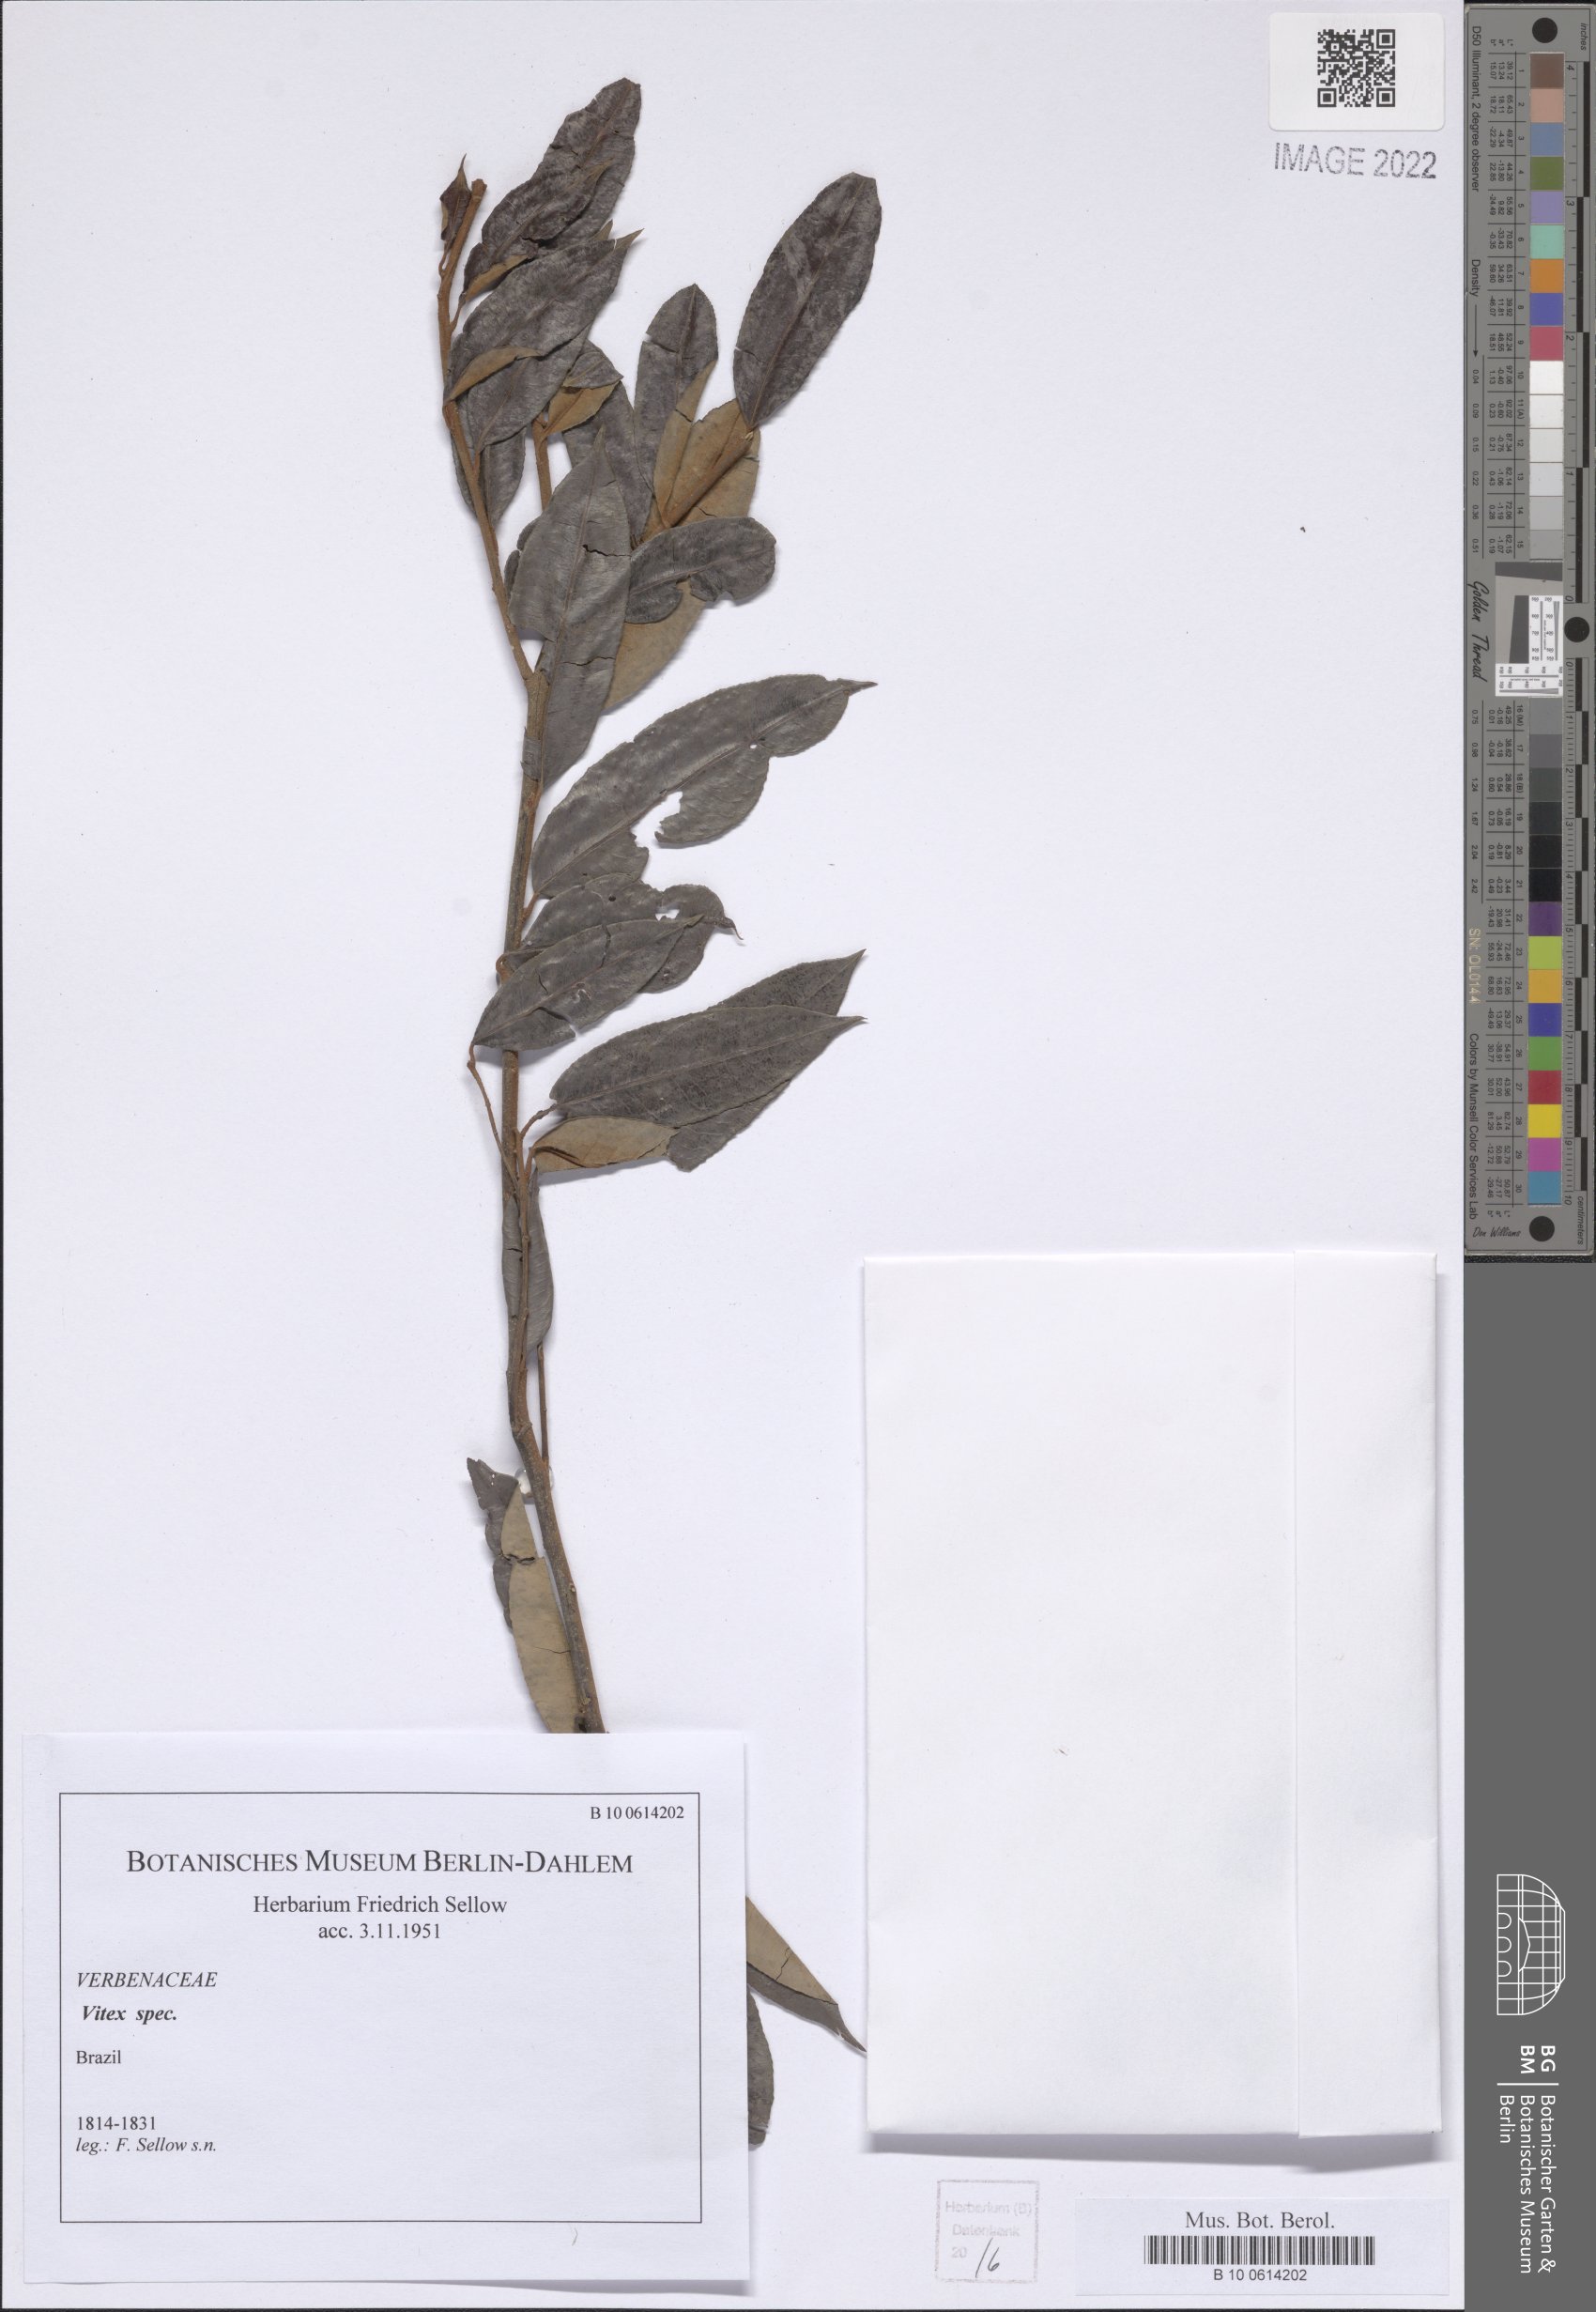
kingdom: Plantae
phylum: Tracheophyta
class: Magnoliopsida
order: Lamiales
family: Lamiaceae
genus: Vitex
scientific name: Vitex
